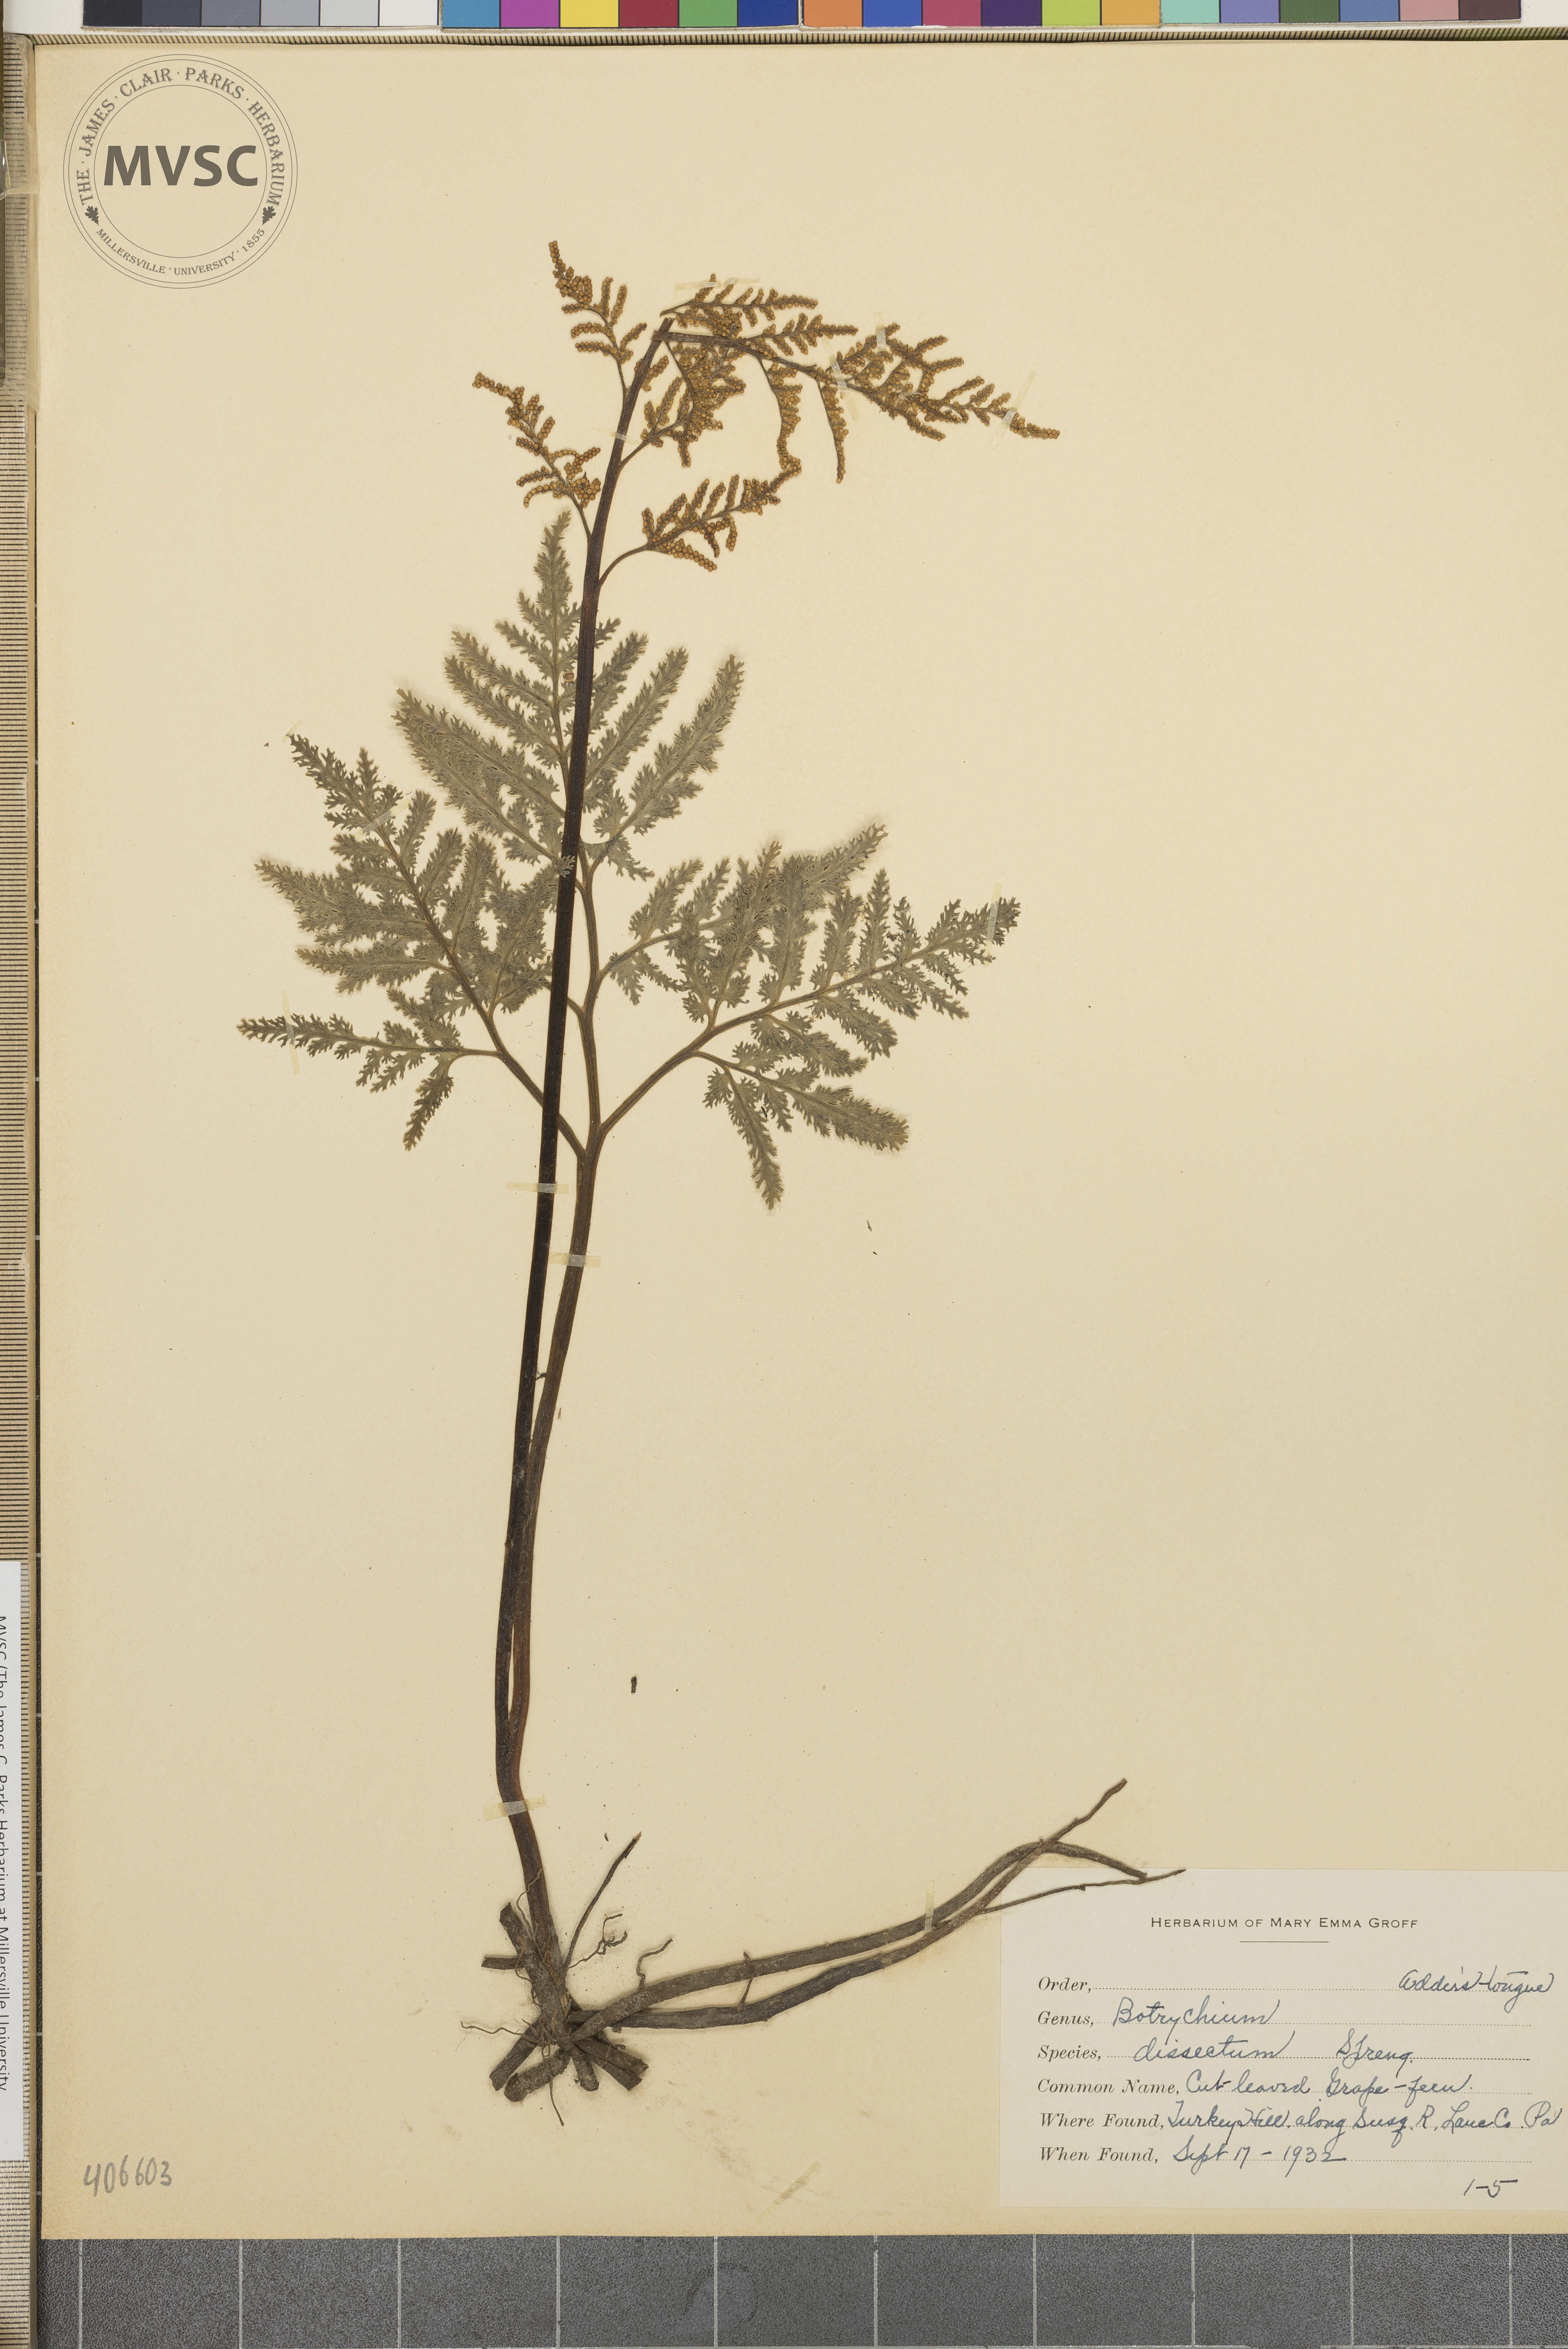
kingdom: Plantae
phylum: Tracheophyta
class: Polypodiopsida
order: Ophioglossales
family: Ophioglossaceae
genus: Sceptridium
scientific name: Sceptridium dissectum
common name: Cut-leaved grapefern
